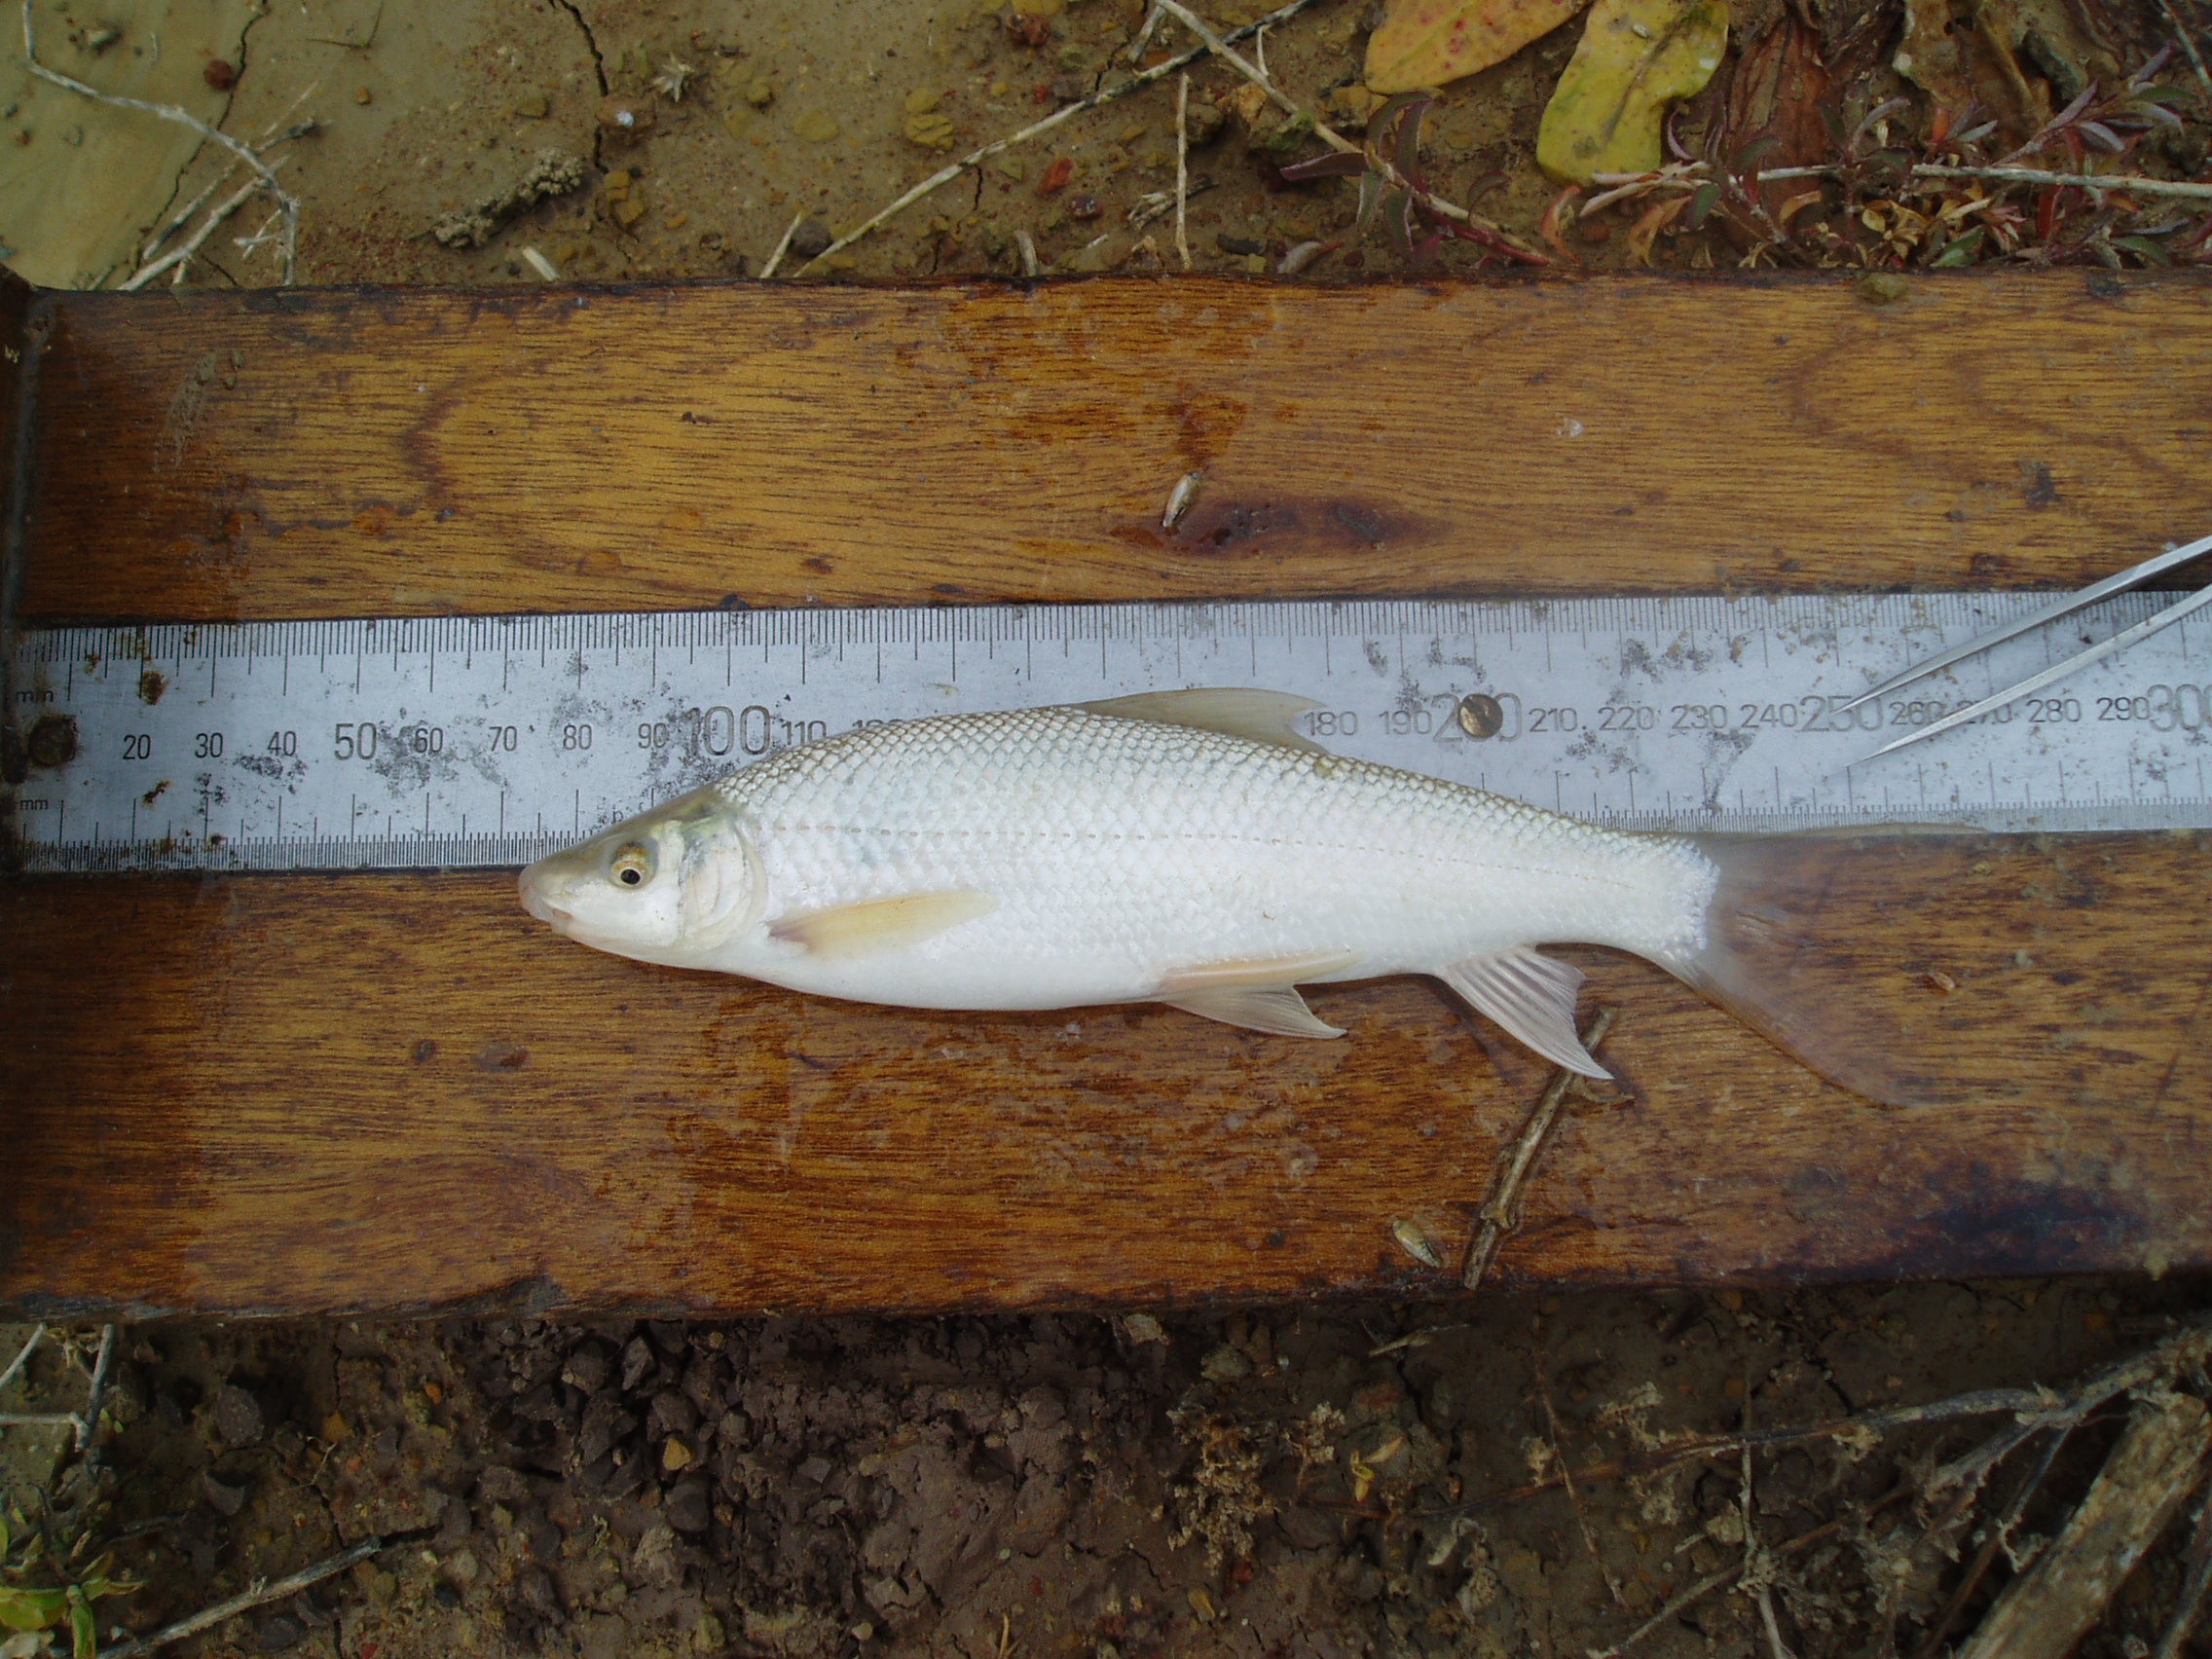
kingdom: Animalia
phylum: Chordata
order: Cypriniformes
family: Cyprinidae
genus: Labeo
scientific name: Labeo umbratus
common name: Moggel
